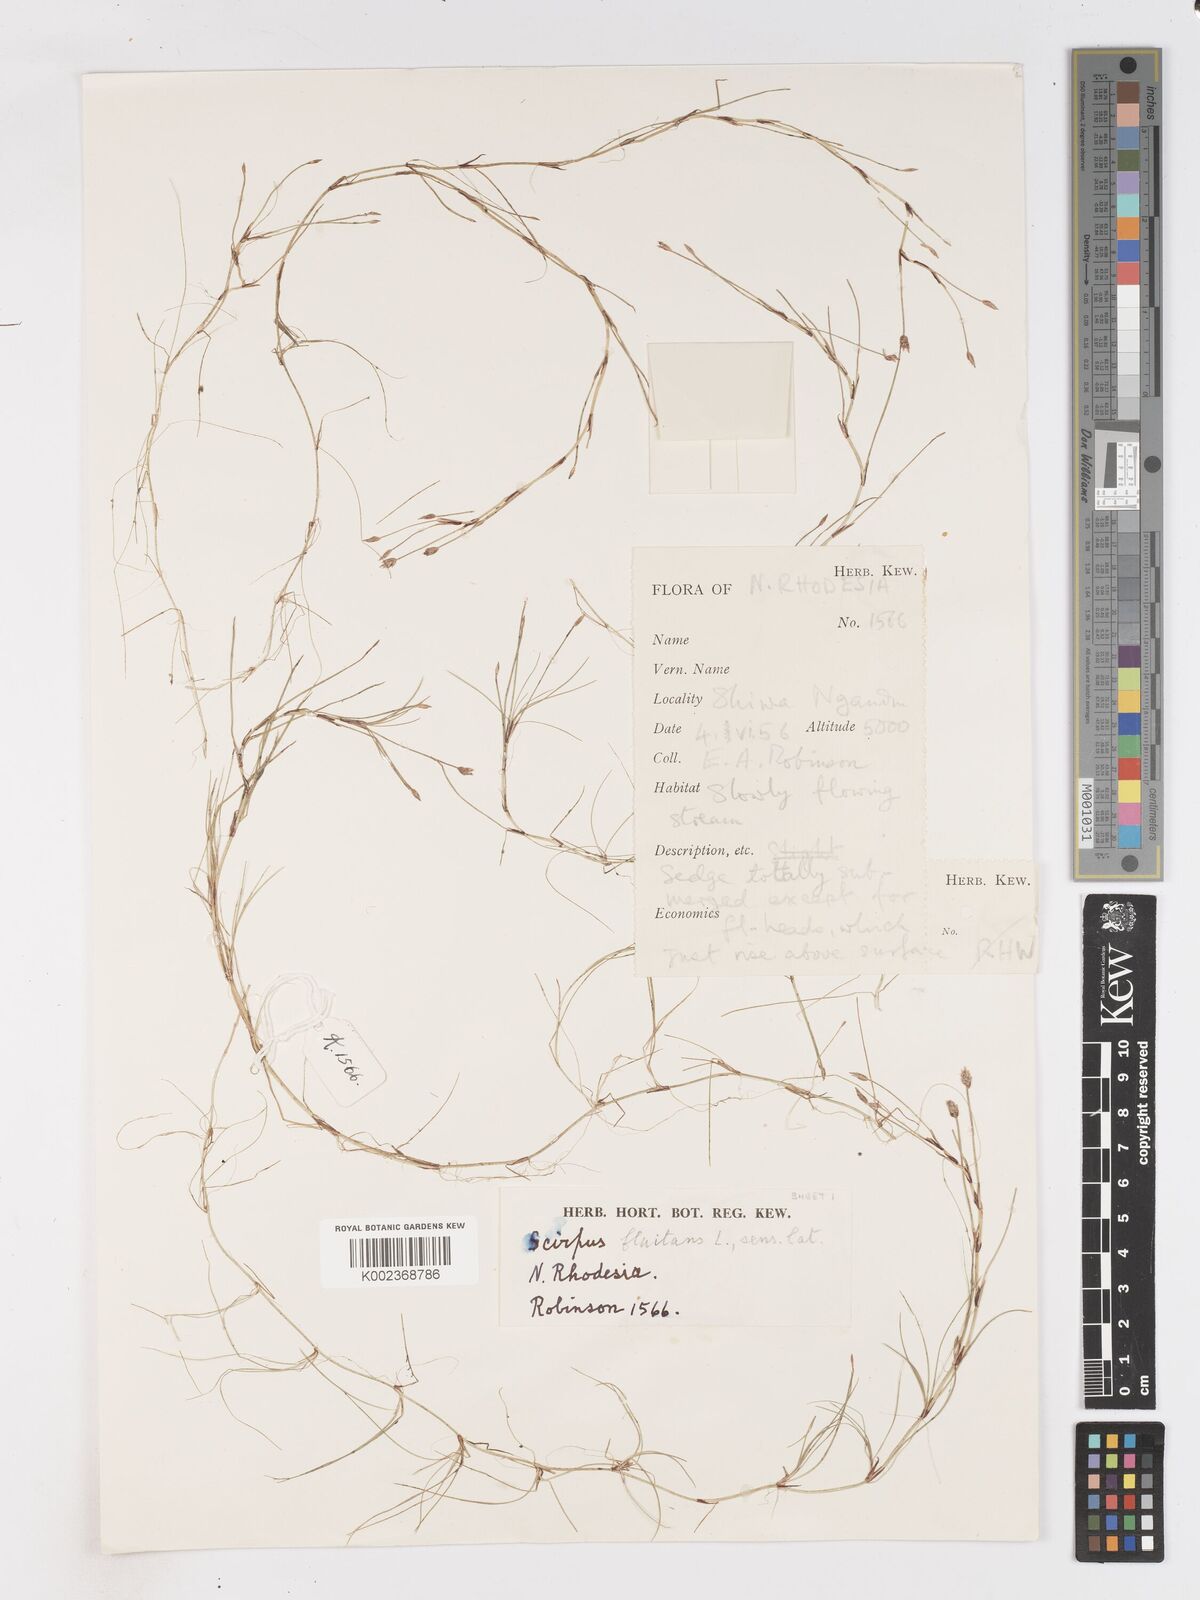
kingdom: Plantae
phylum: Tracheophyta
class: Liliopsida
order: Poales
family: Cyperaceae
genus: Isolepis
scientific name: Isolepis fluitans
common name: Floating club-rush
